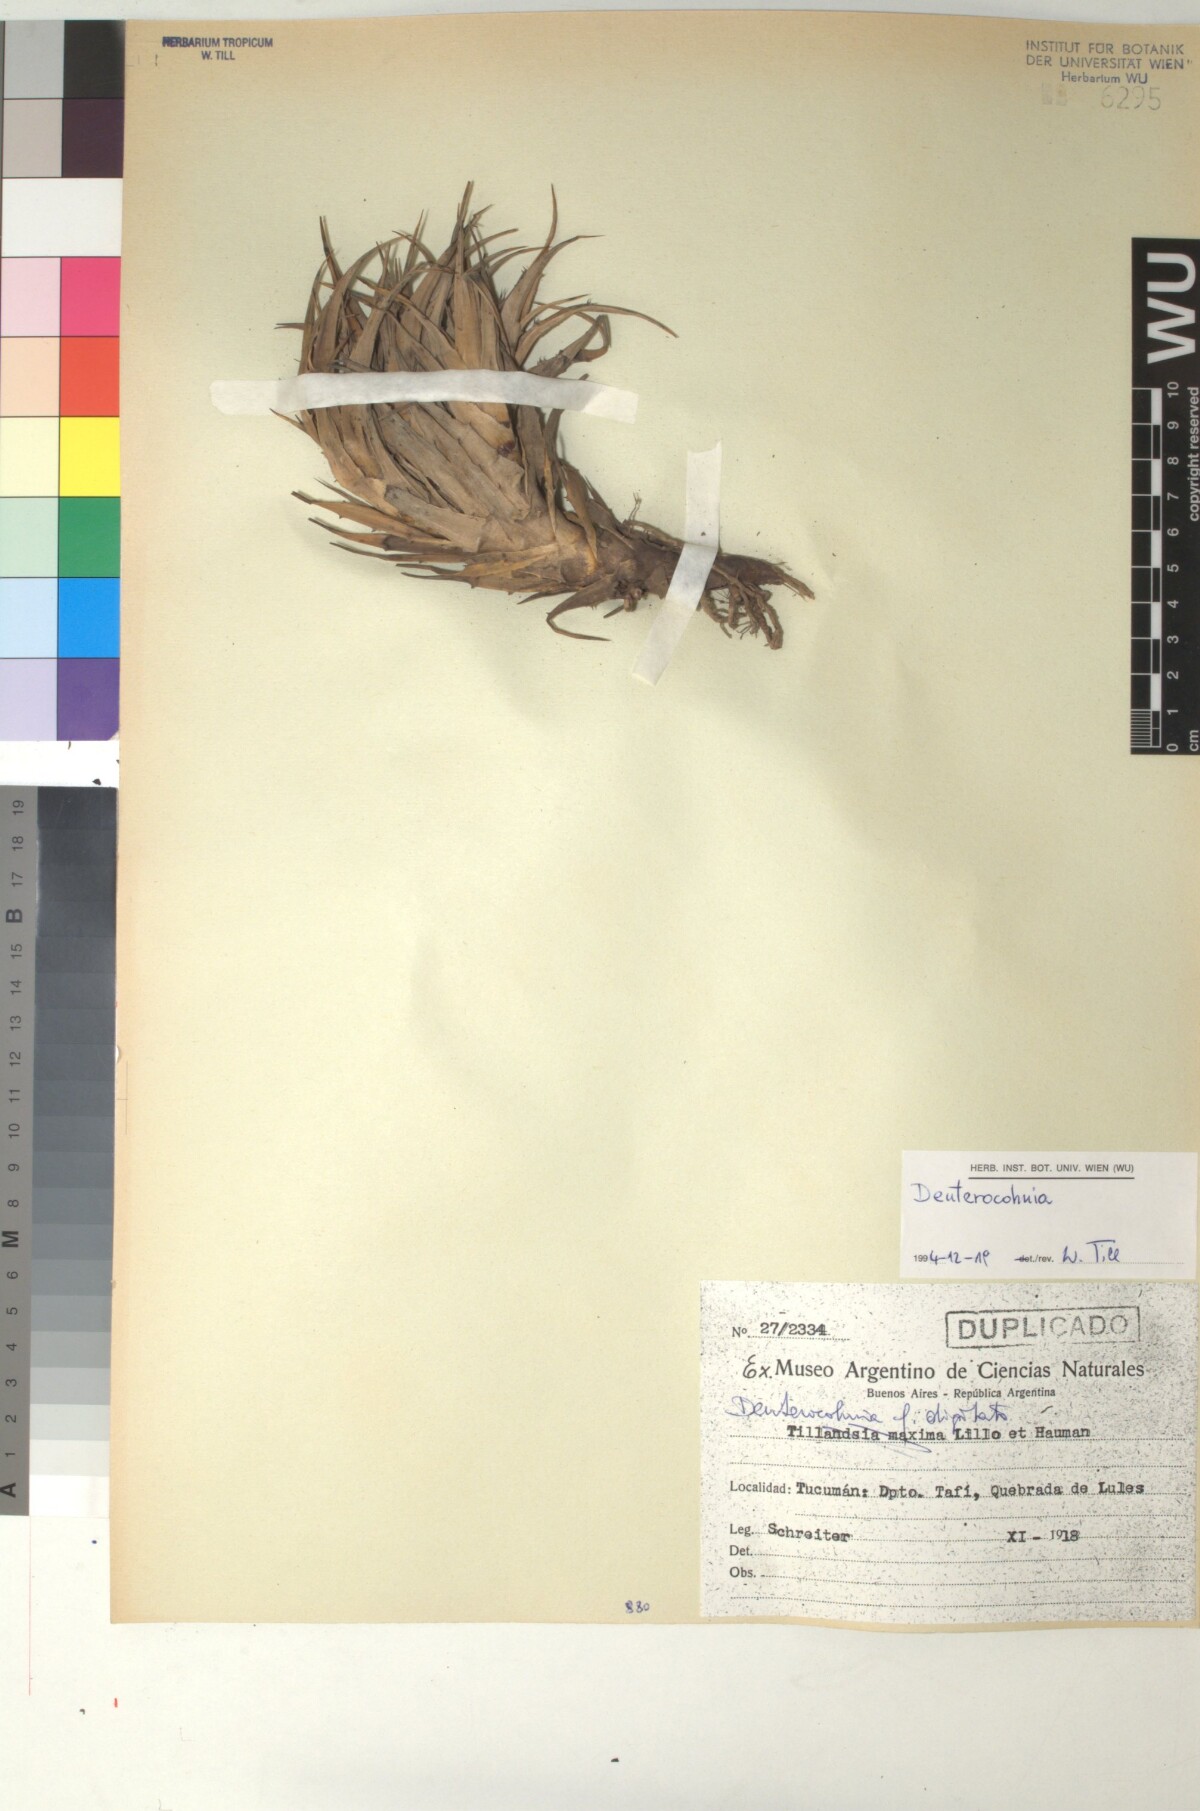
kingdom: Plantae
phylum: Tracheophyta
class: Liliopsida
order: Poales
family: Bromeliaceae
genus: Deuterocohnia
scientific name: Deuterocohnia abstrusa
